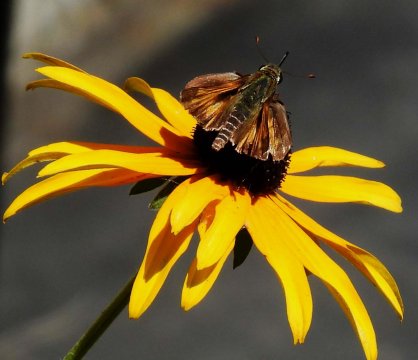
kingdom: Animalia
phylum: Arthropoda
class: Insecta
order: Lepidoptera
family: Hesperiidae
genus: Atalopedes
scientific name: Atalopedes campestris
